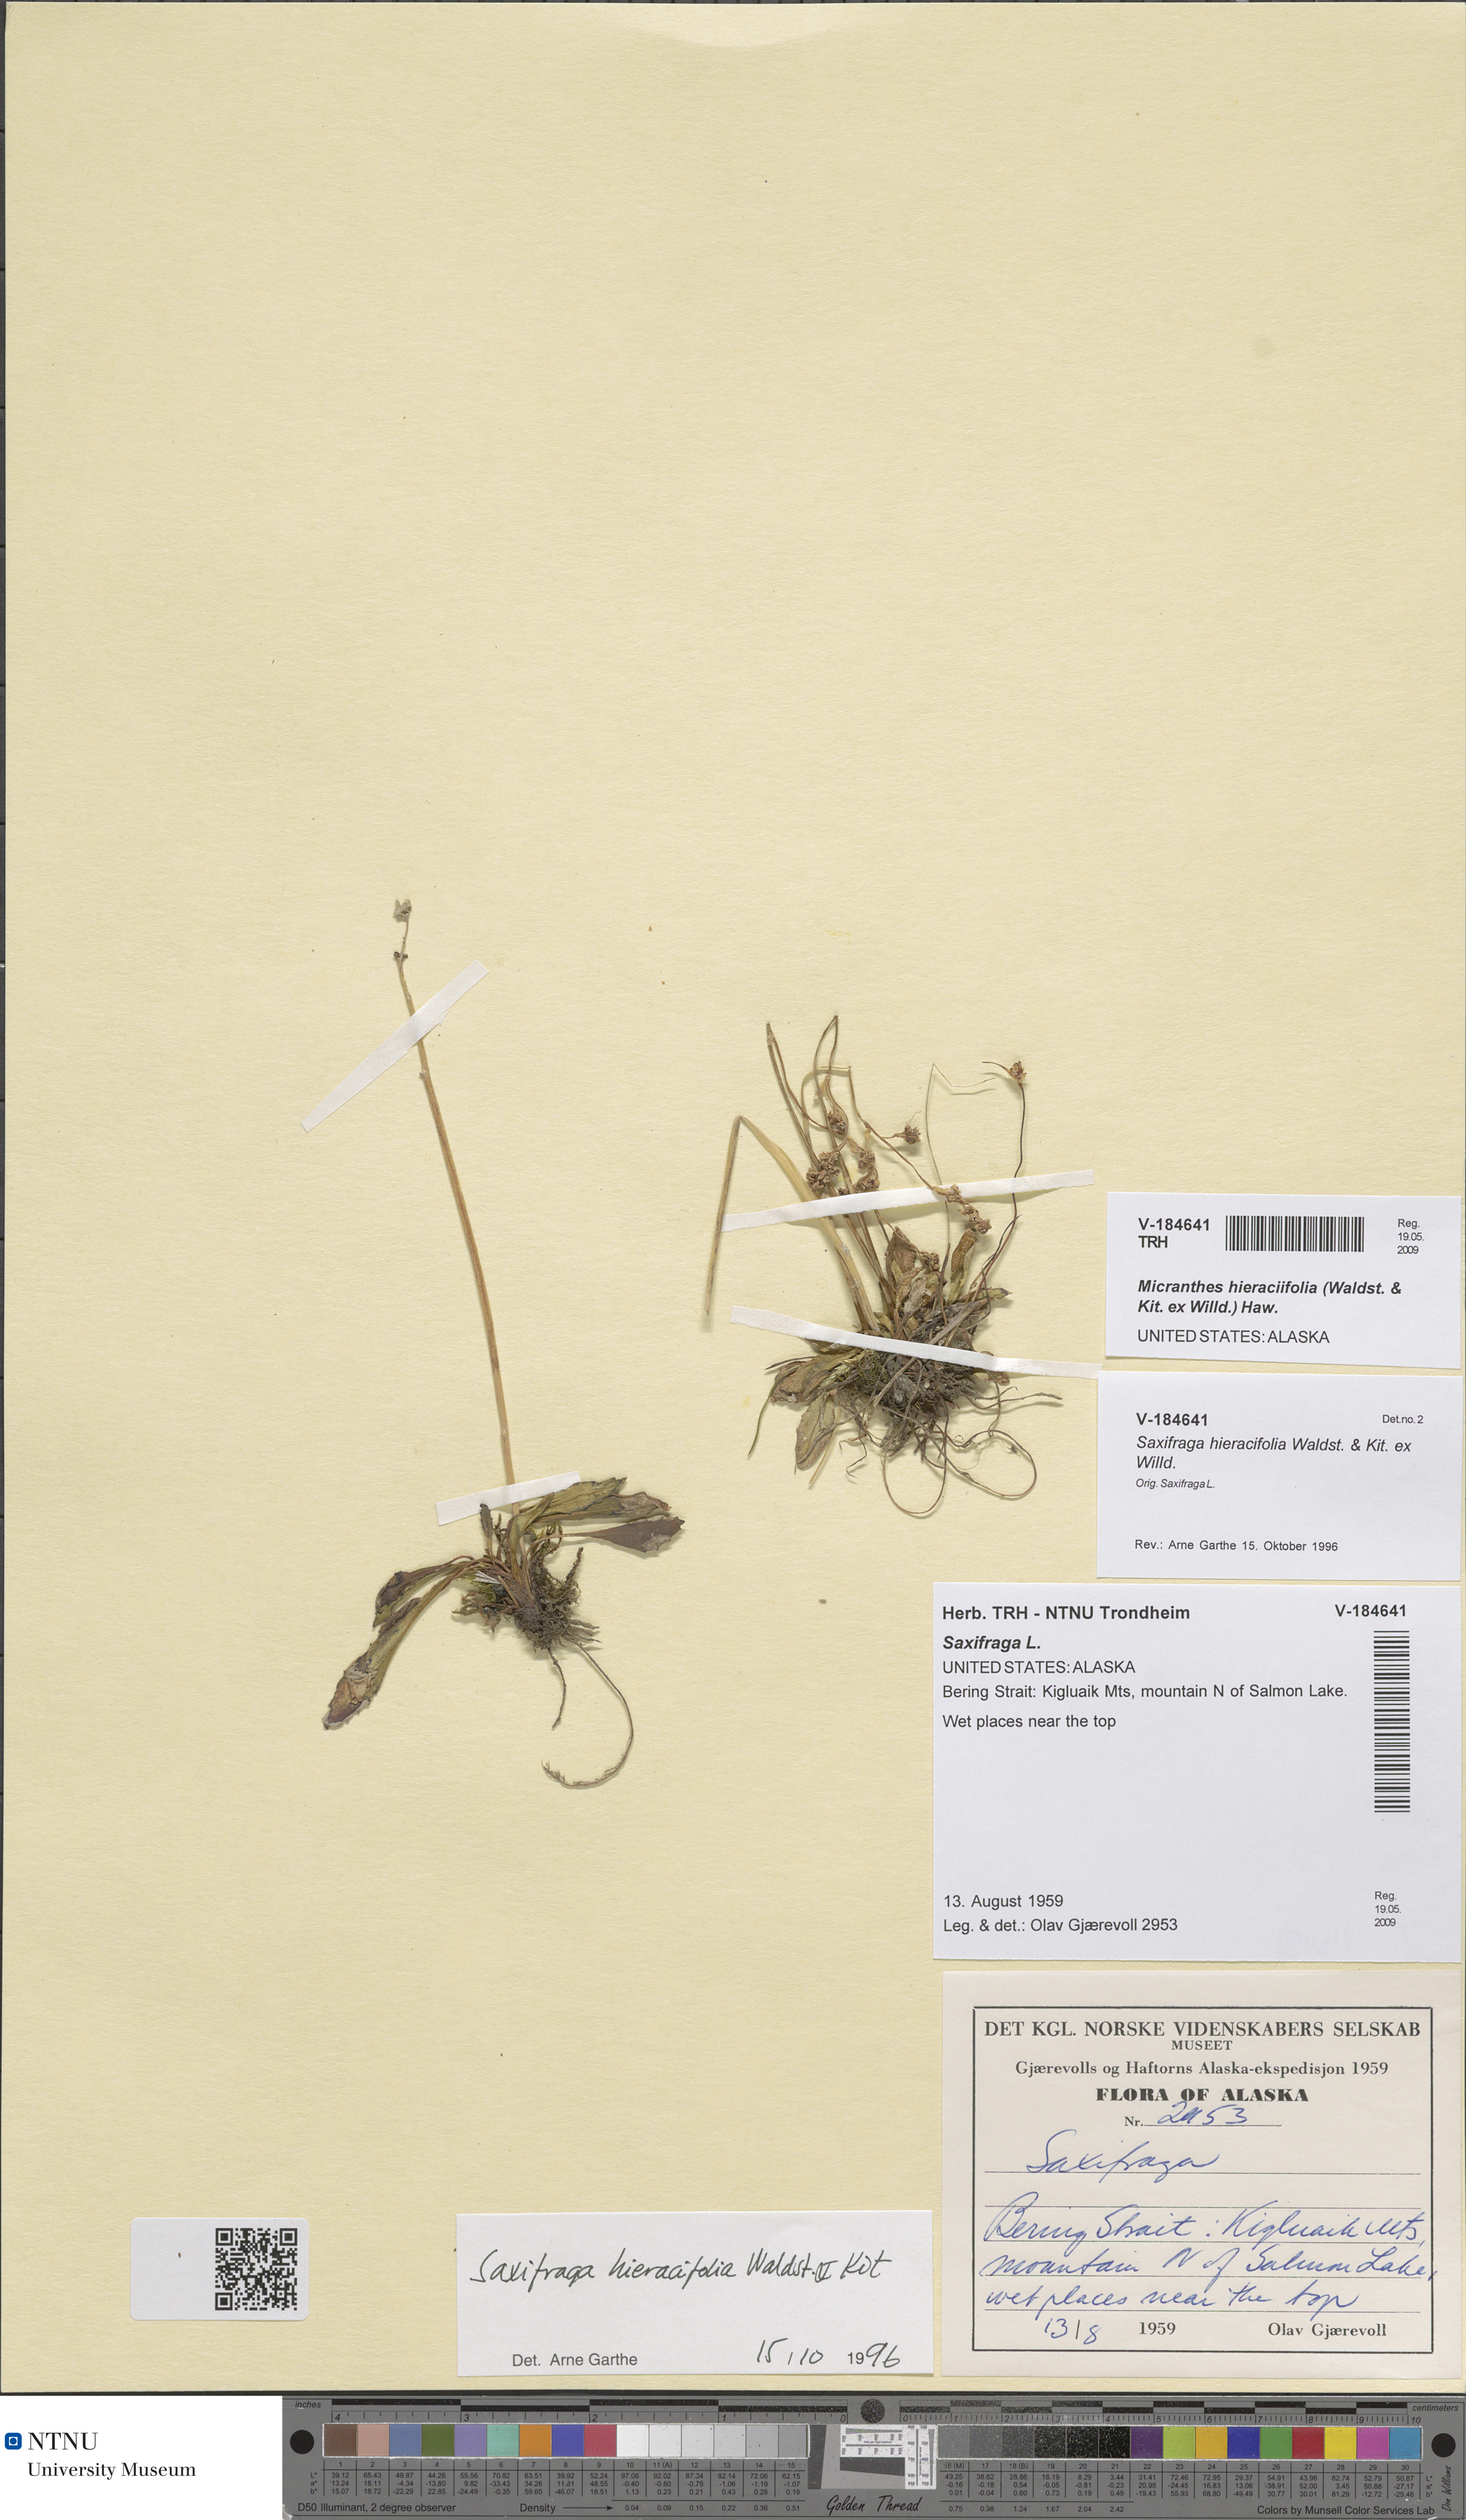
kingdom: Plantae
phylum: Tracheophyta
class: Magnoliopsida
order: Saxifragales
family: Saxifragaceae
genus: Micranthes
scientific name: Micranthes hieraciifolia
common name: Hawkweed-leaved saxifrage
